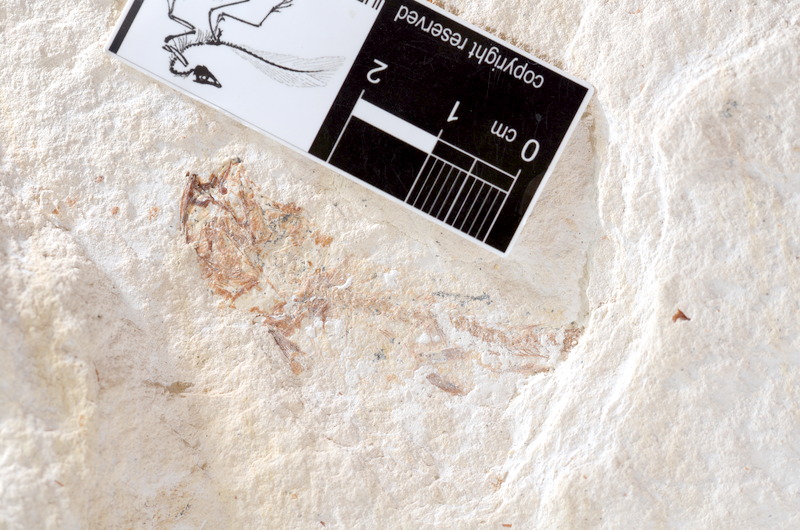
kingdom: Animalia
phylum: Chordata
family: Ascalaboidae
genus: Tharsis
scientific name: Tharsis dubius
